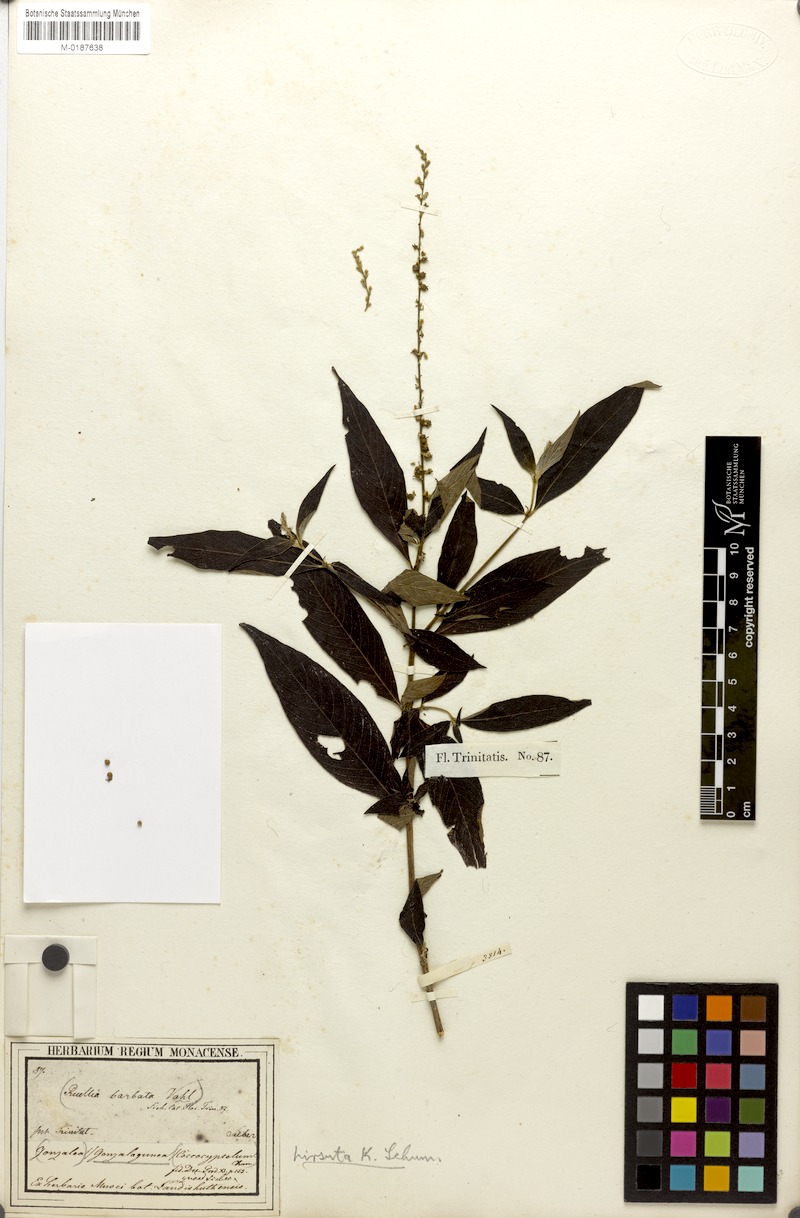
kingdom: Plantae
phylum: Tracheophyta
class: Magnoliopsida
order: Gentianales
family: Rubiaceae
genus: Gonzalagunia
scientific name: Gonzalagunia hirsuta
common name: Mata de mariposa
